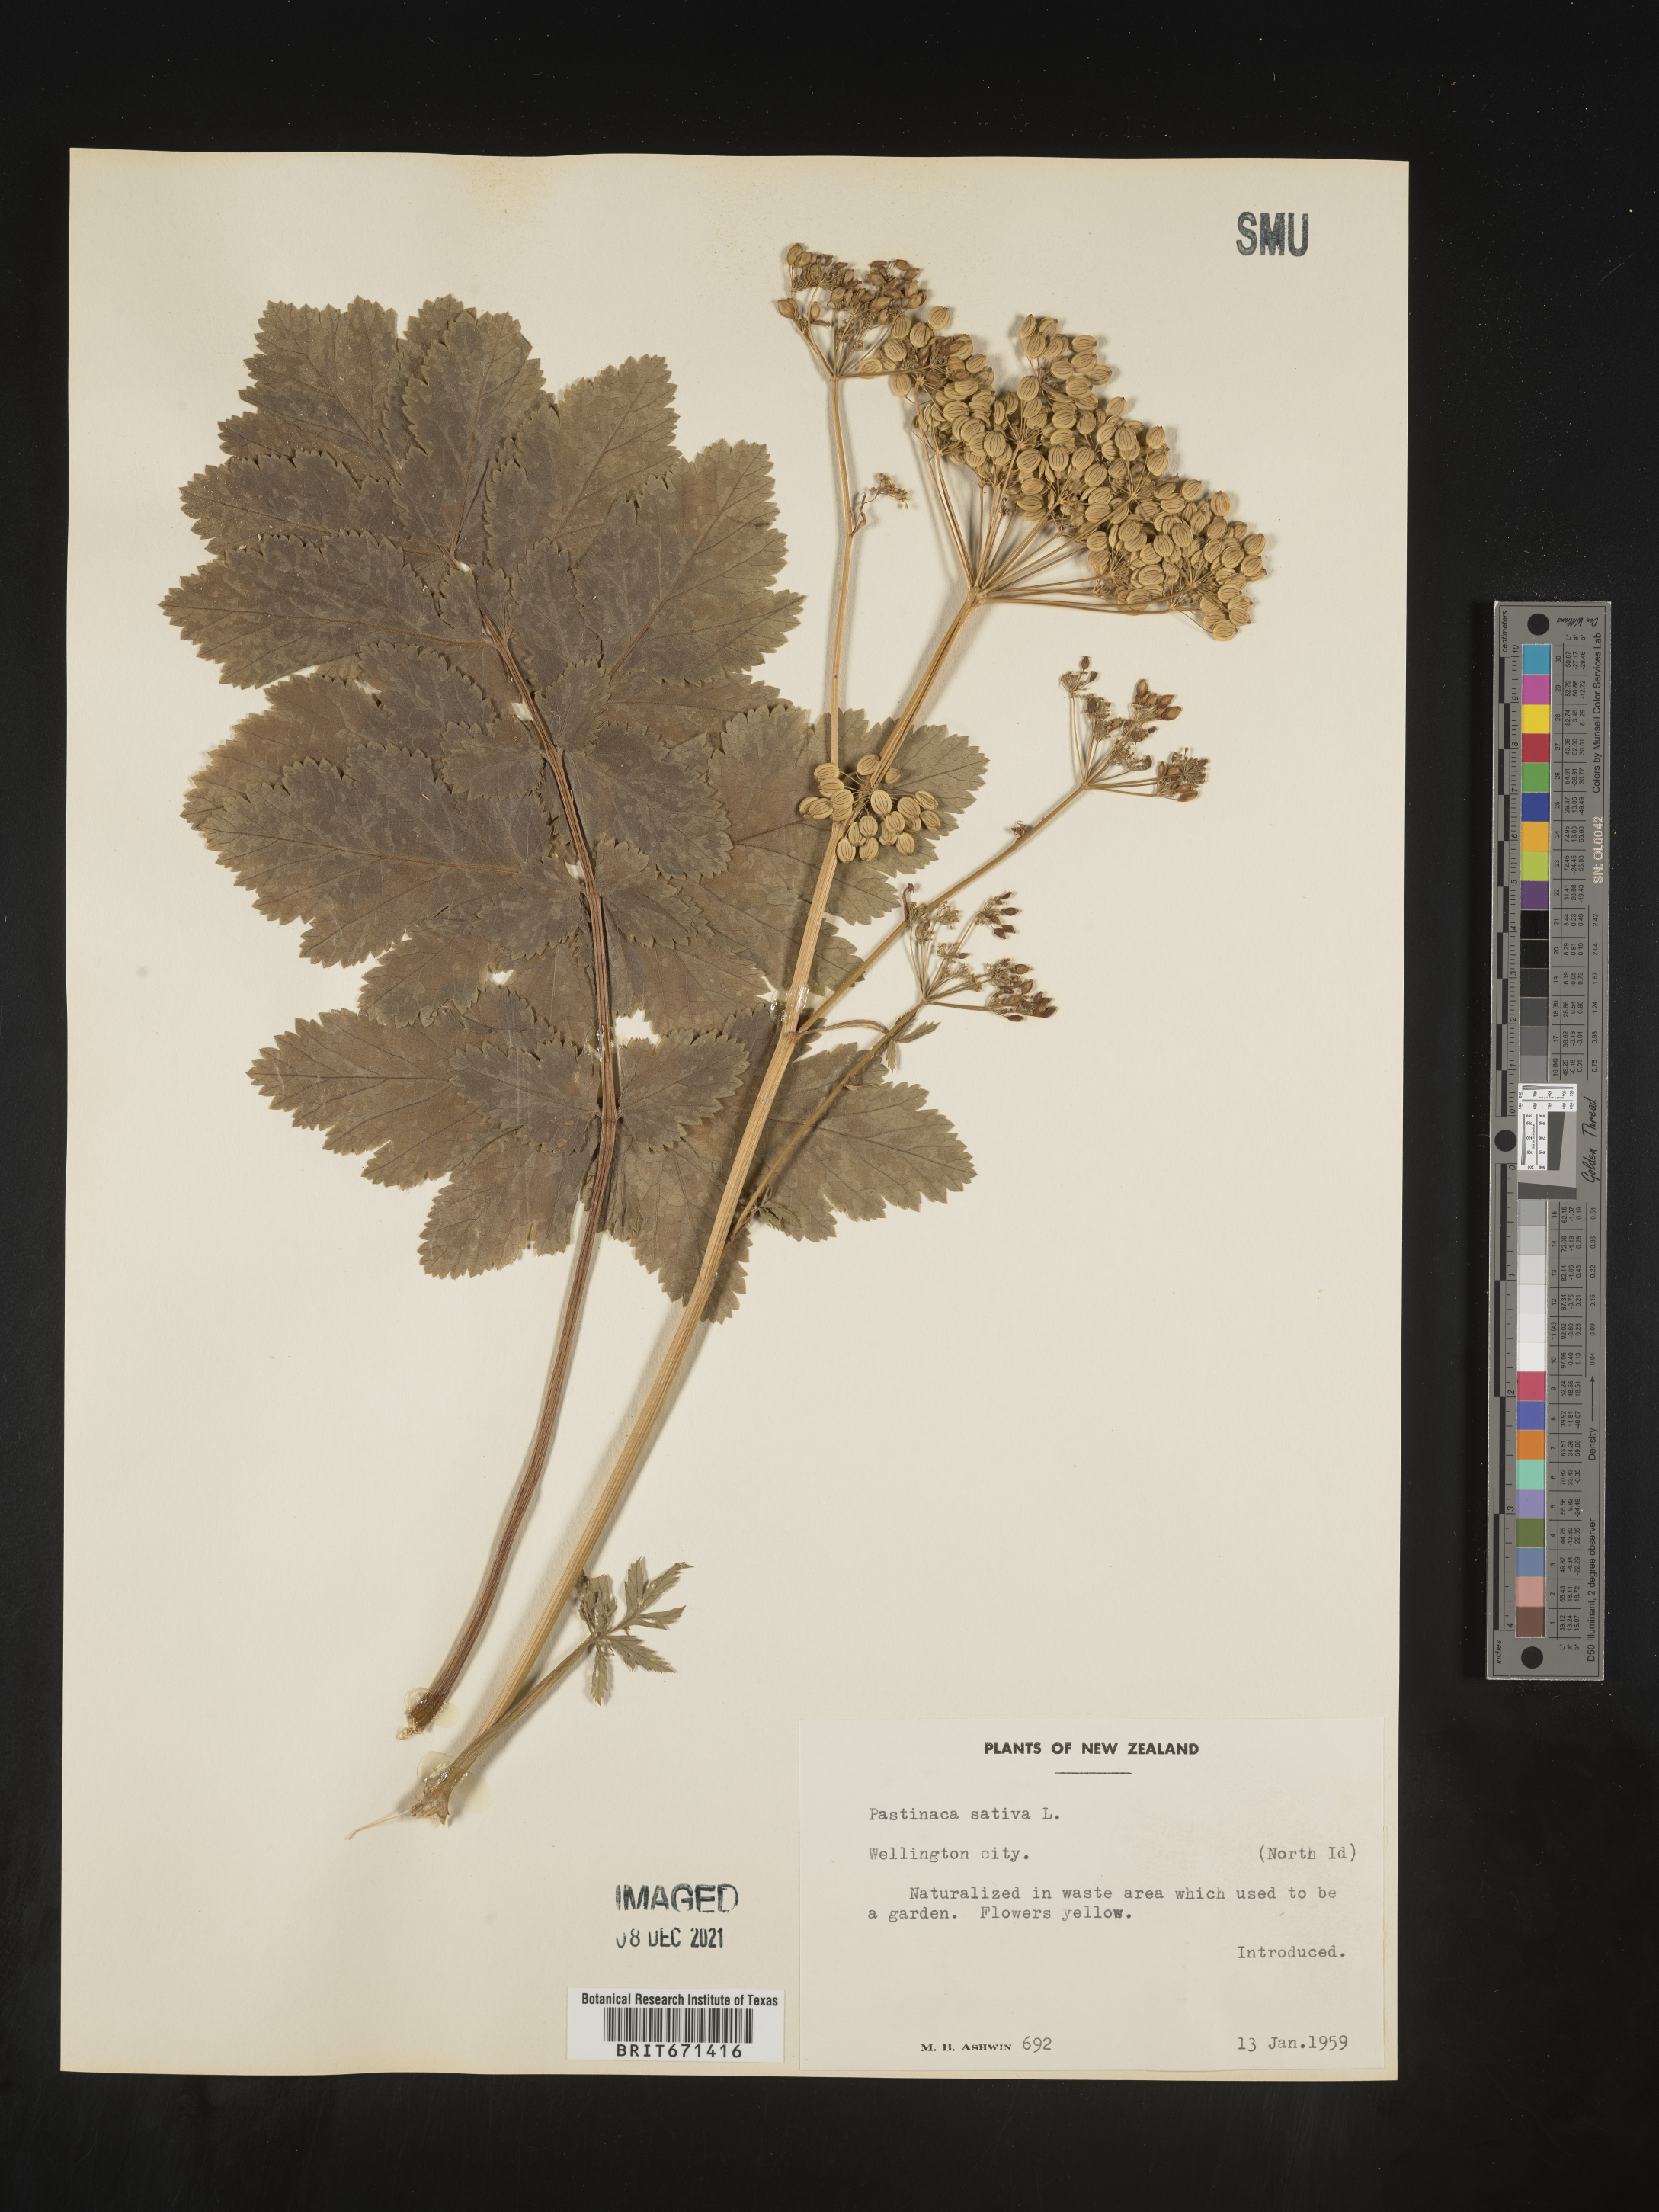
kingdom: Plantae
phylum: Tracheophyta
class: Magnoliopsida
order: Apiales
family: Apiaceae
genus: Pastinaca
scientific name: Pastinaca sativa
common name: Wild parsnip
